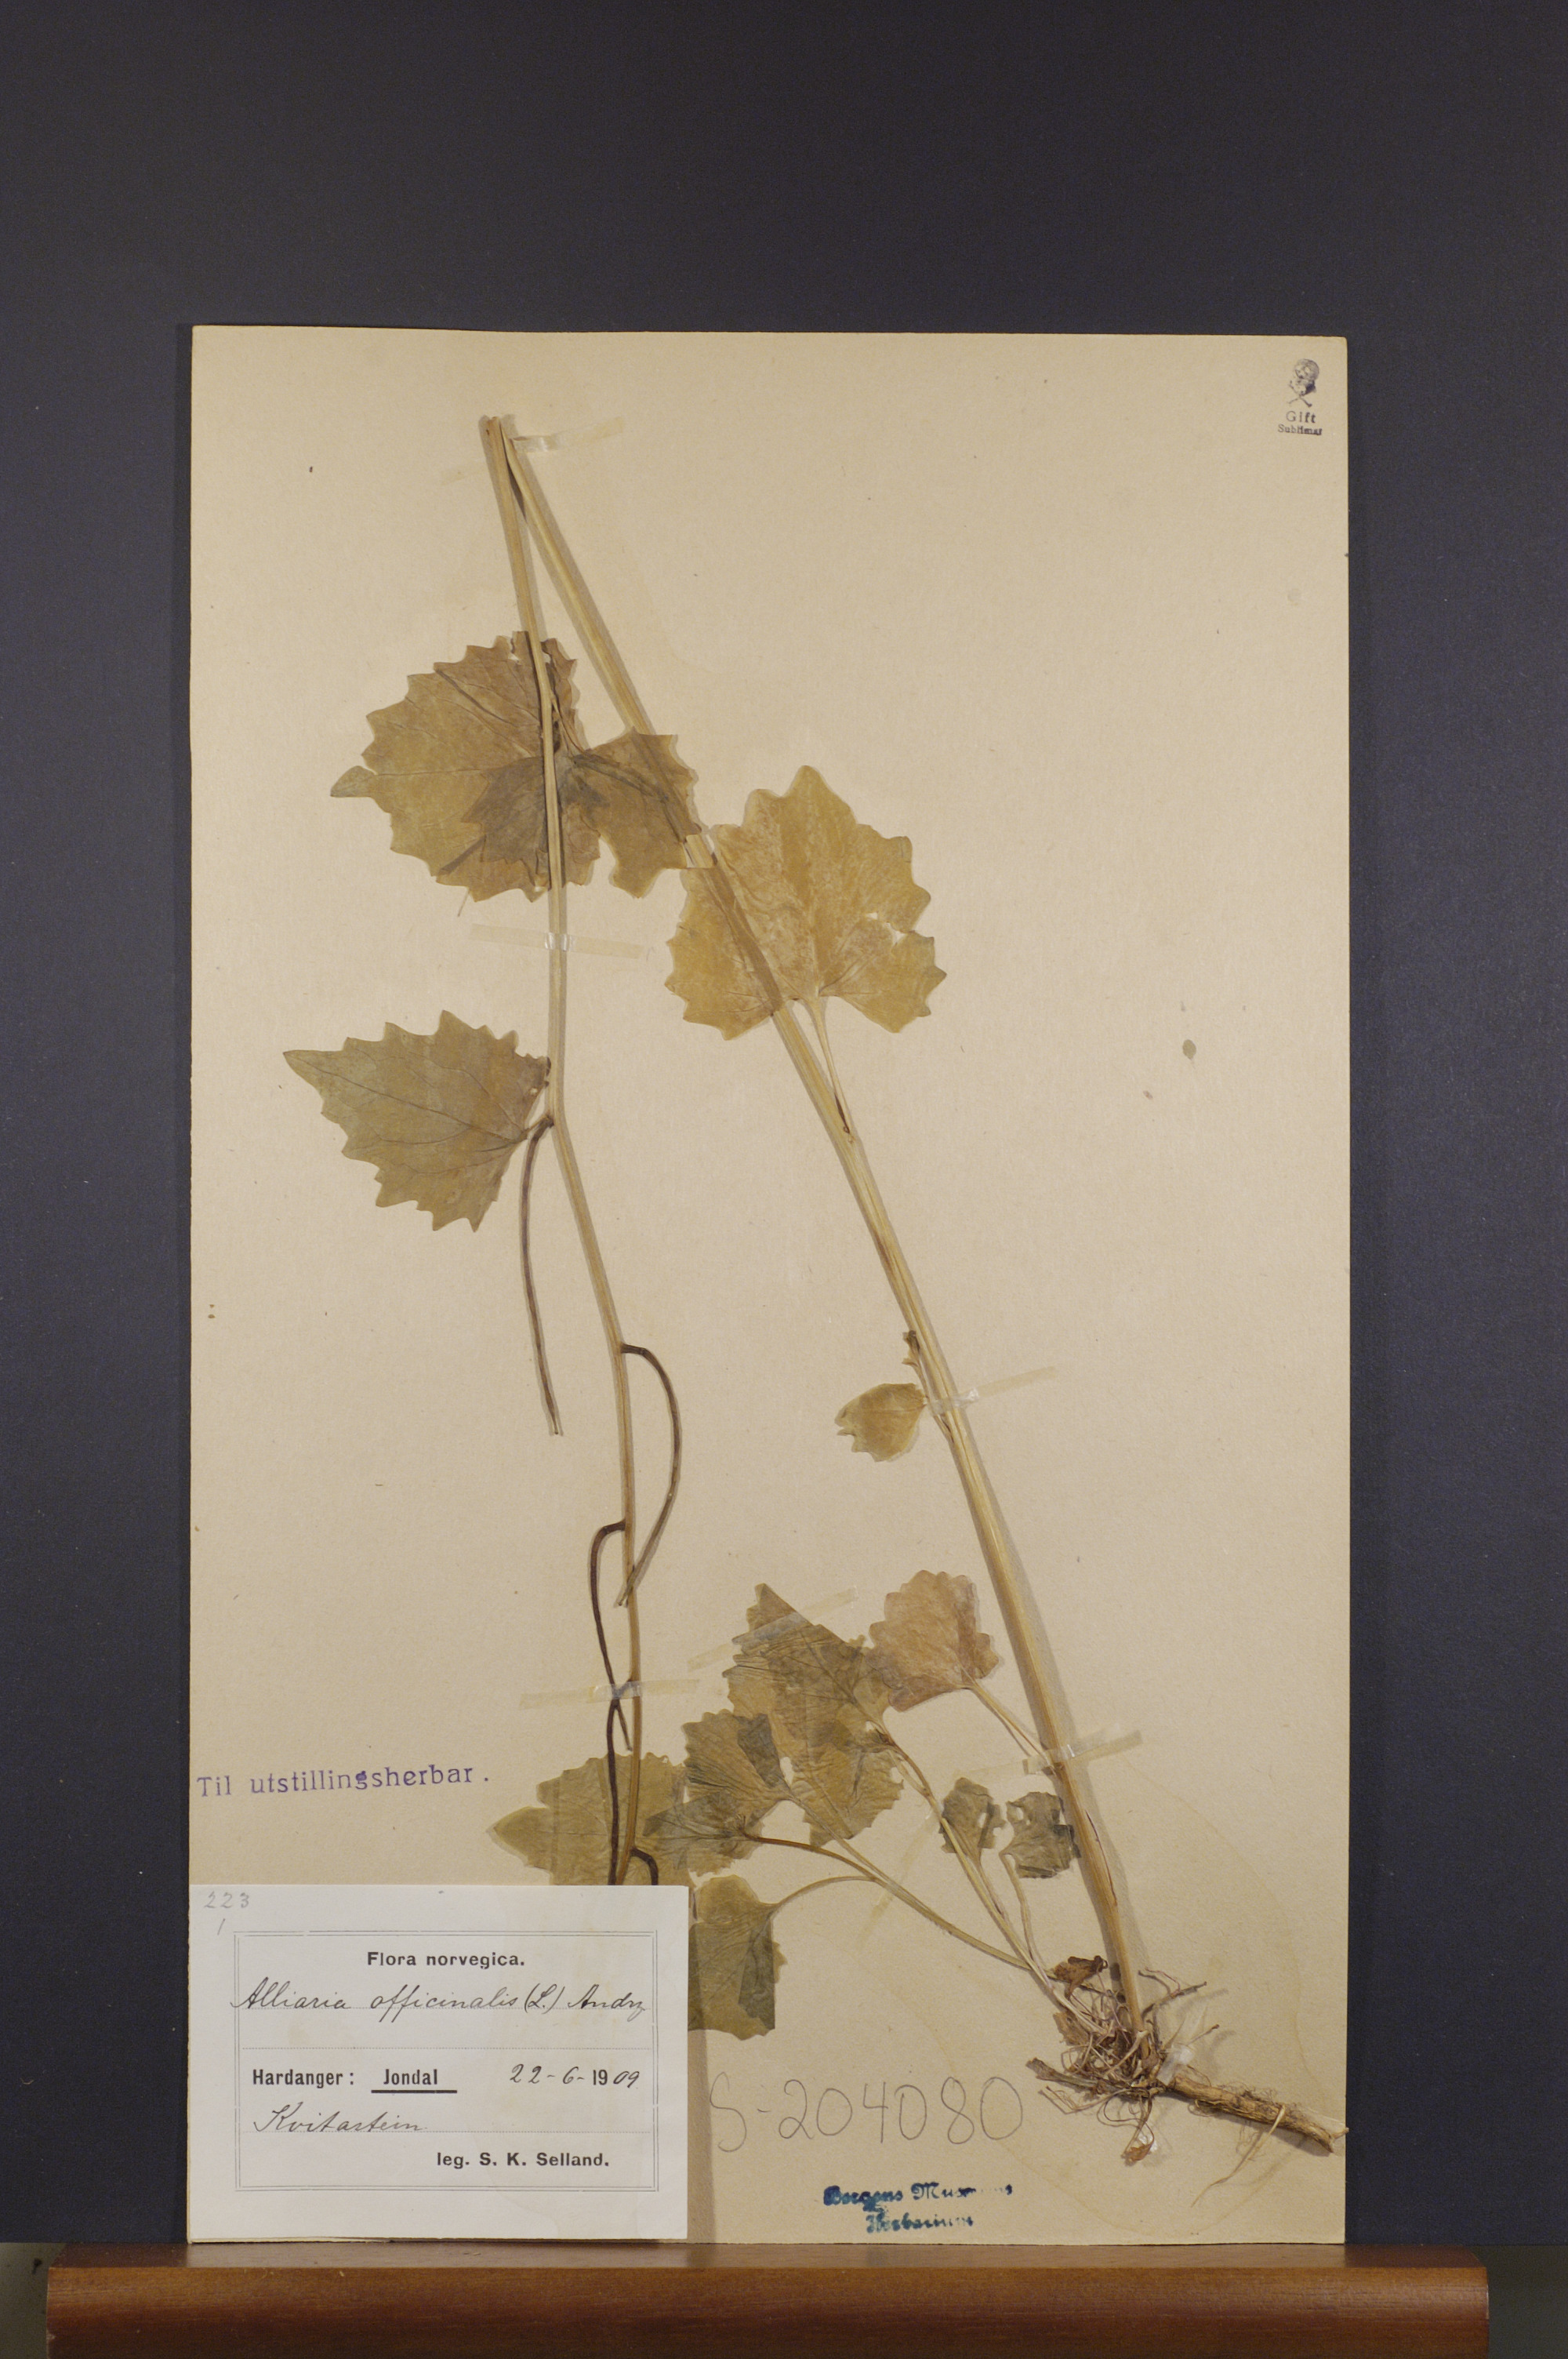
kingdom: Plantae
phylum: Tracheophyta
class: Magnoliopsida
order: Brassicales
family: Brassicaceae
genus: Alliaria
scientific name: Alliaria petiolata
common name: Garlic mustard
